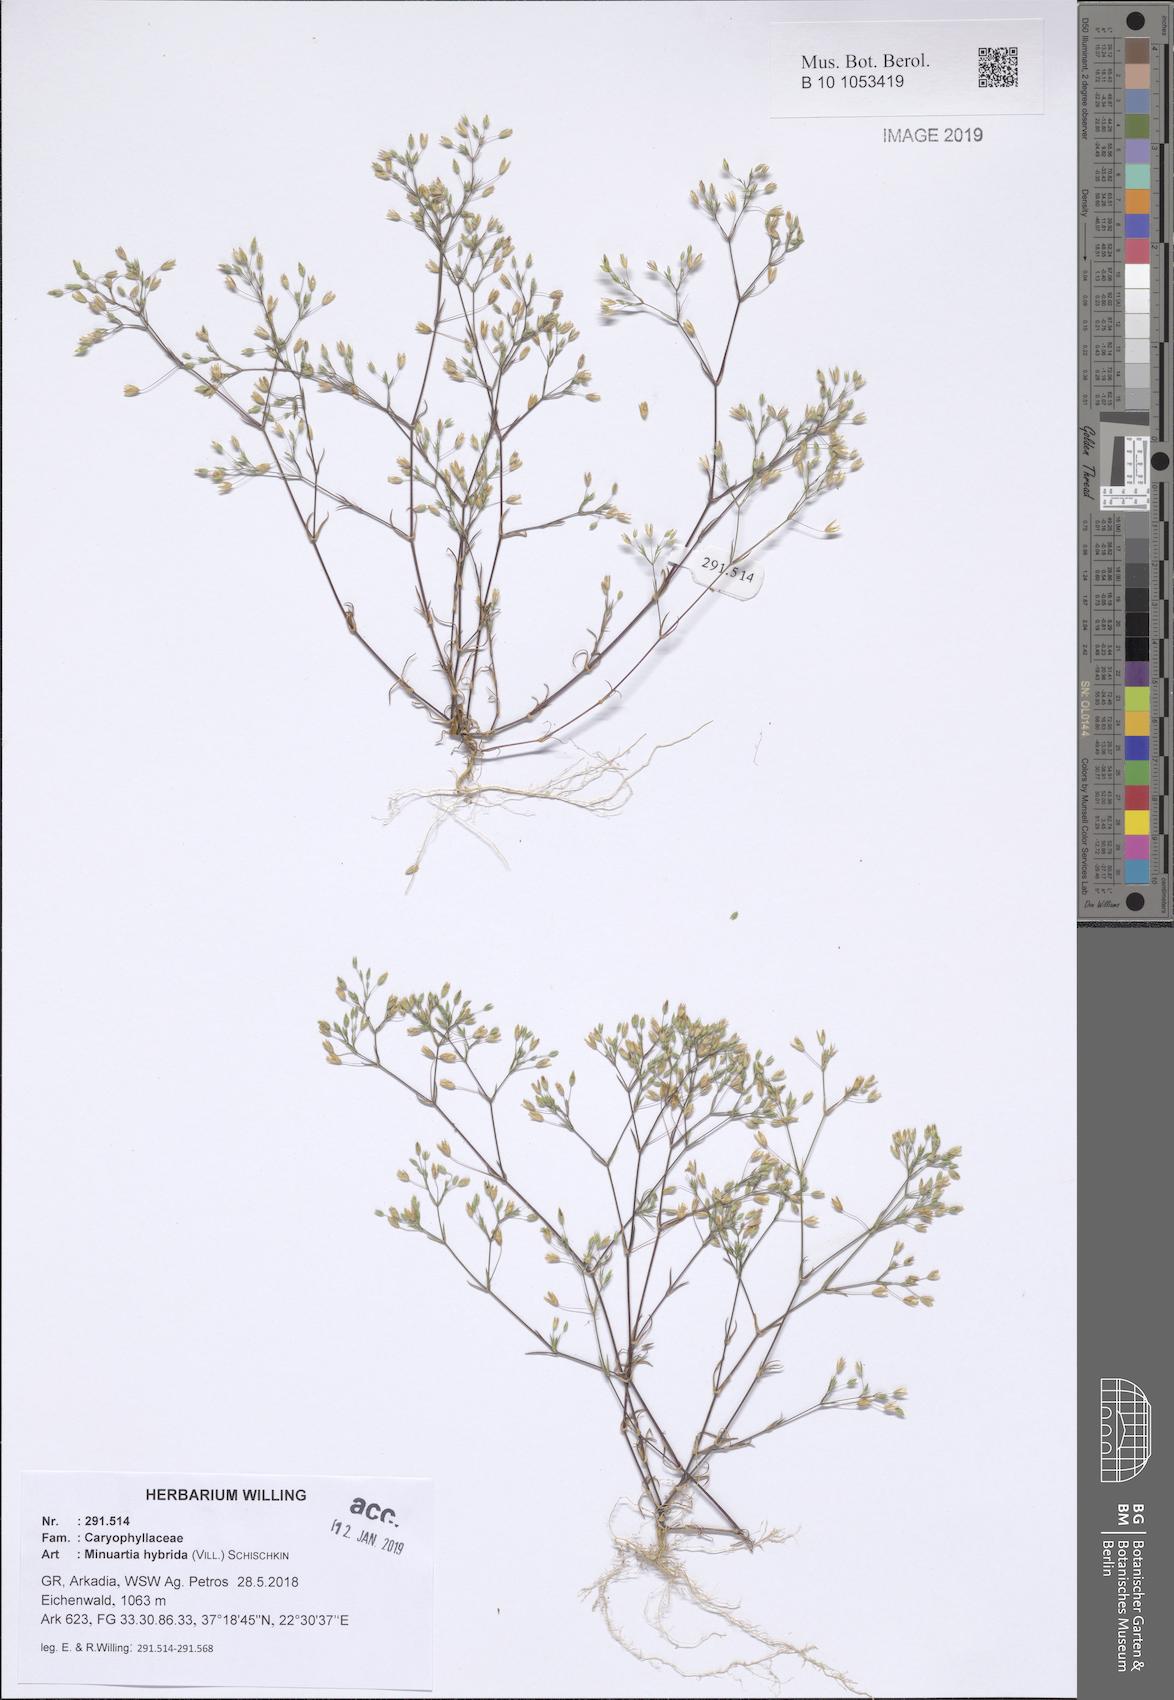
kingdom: Plantae
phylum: Tracheophyta
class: Magnoliopsida
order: Caryophyllales
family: Caryophyllaceae
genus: Sabulina
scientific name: Sabulina tenuifolia
